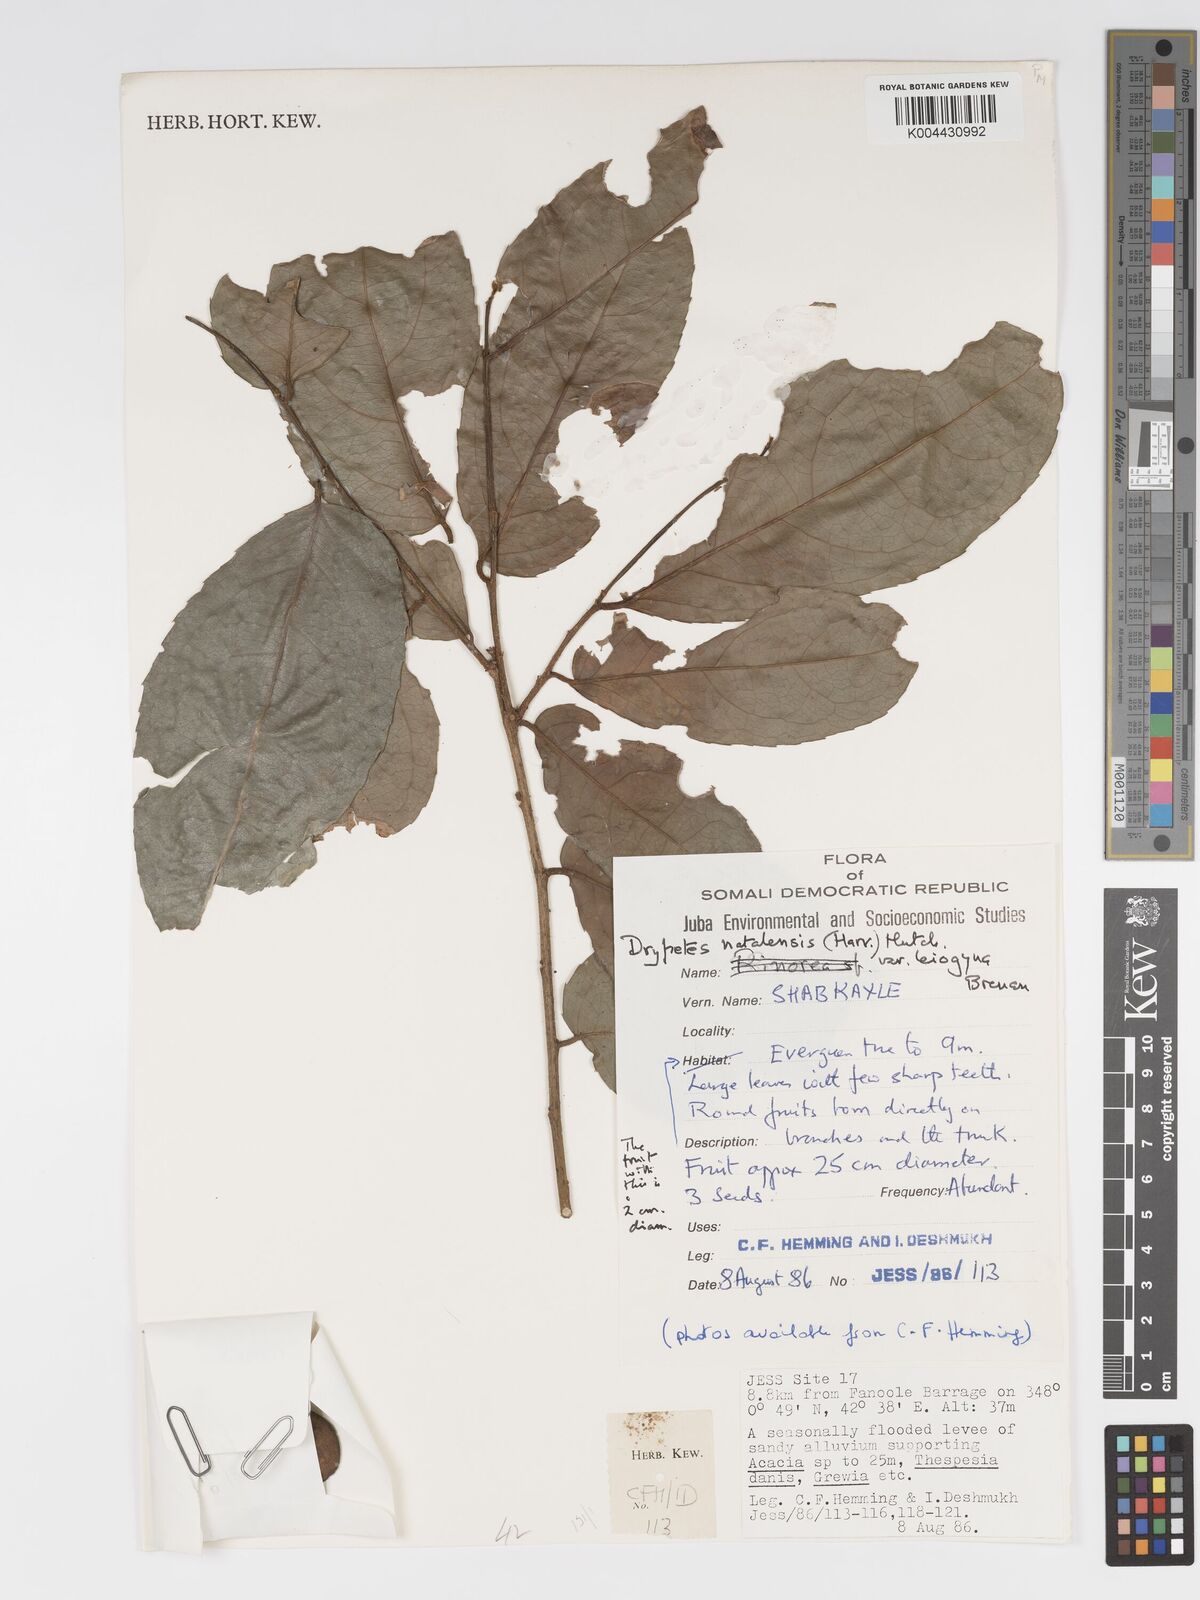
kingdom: Plantae
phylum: Tracheophyta
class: Magnoliopsida
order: Malpighiales
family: Putranjivaceae
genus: Drypetes
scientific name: Drypetes natalensis
